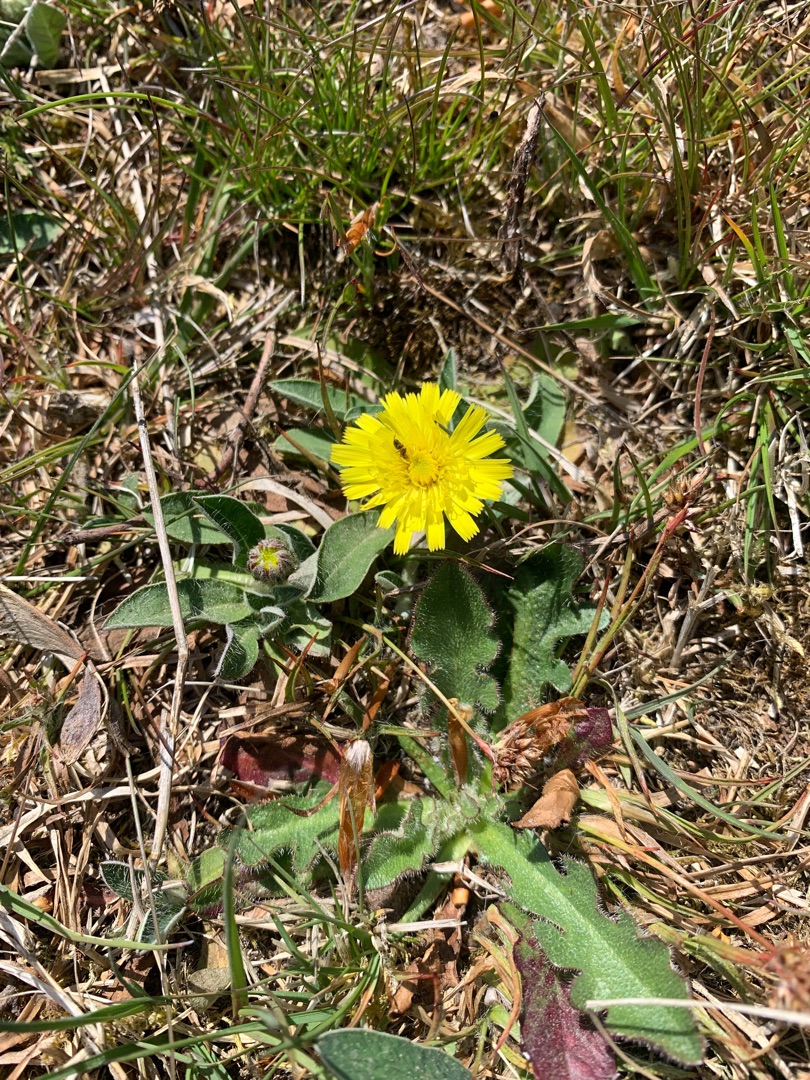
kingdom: Plantae
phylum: Tracheophyta
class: Magnoliopsida
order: Asterales
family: Asteraceae
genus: Pilosella
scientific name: Pilosella officinarum
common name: Håret høgeurt
